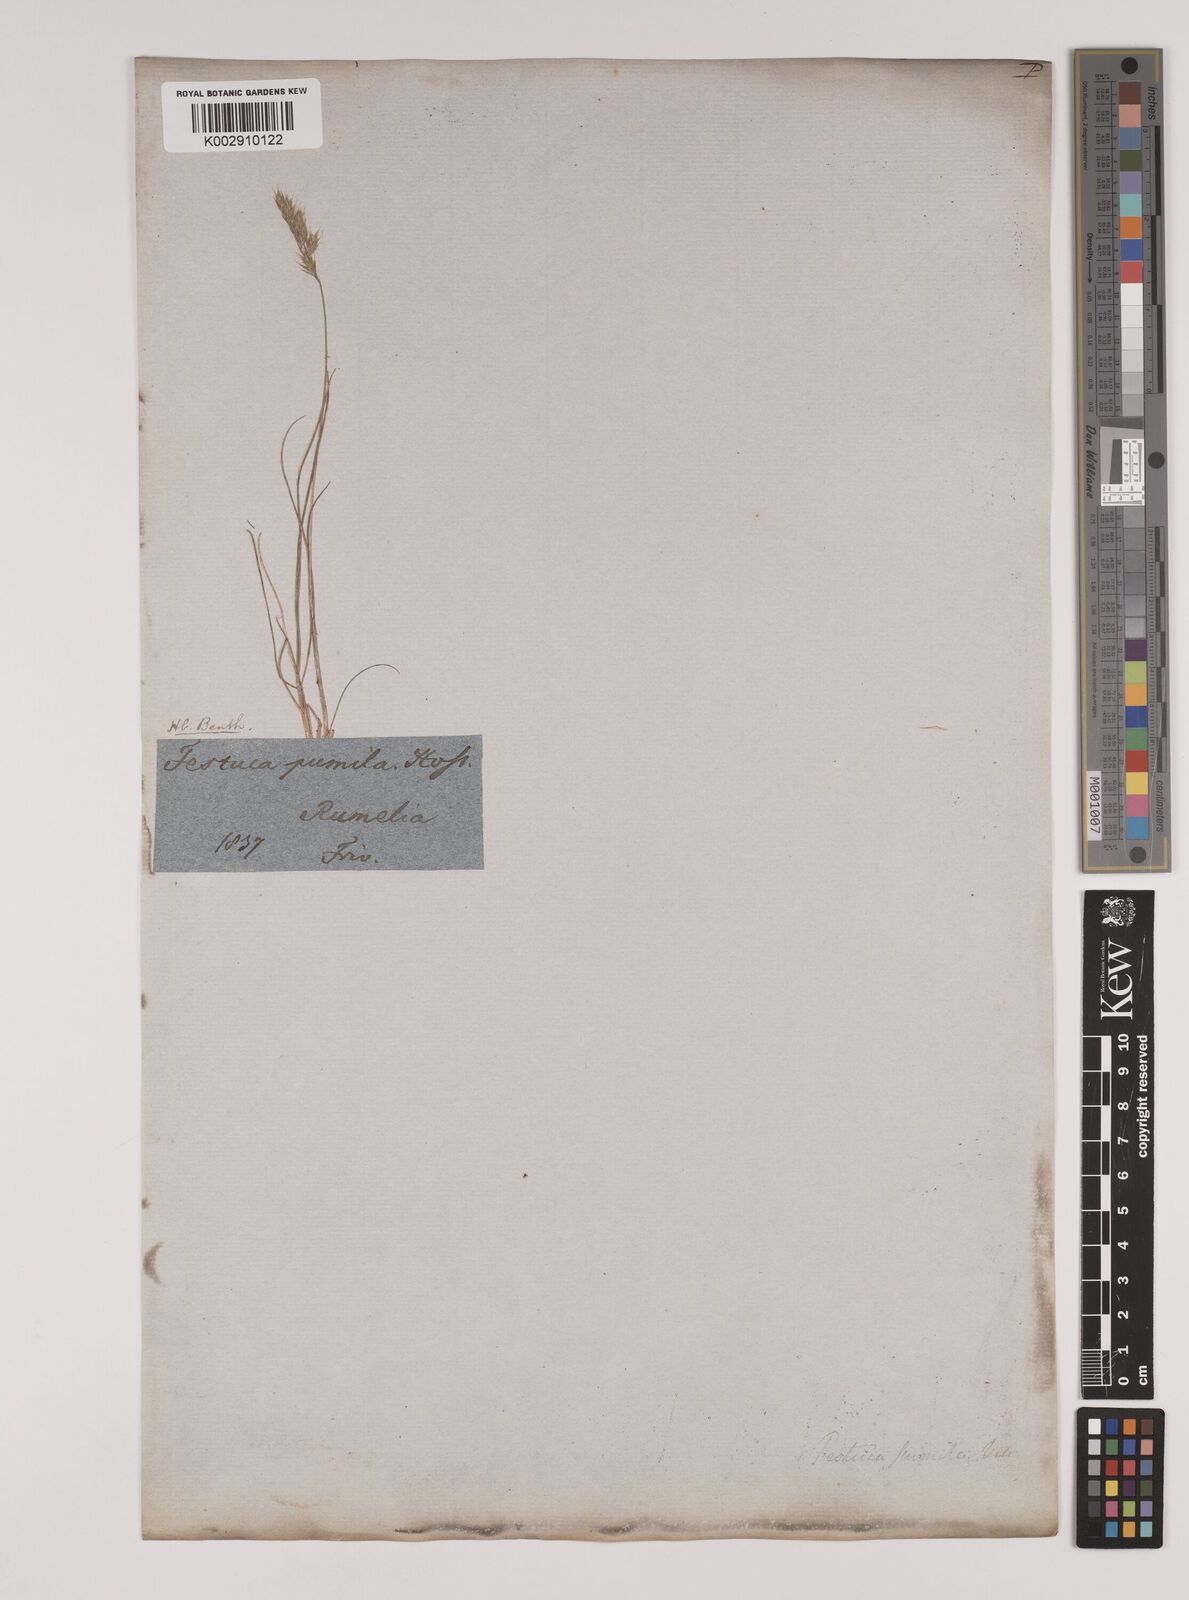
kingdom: Plantae
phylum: Tracheophyta
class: Liliopsida
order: Poales
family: Poaceae
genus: Festuca
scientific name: Festuca
